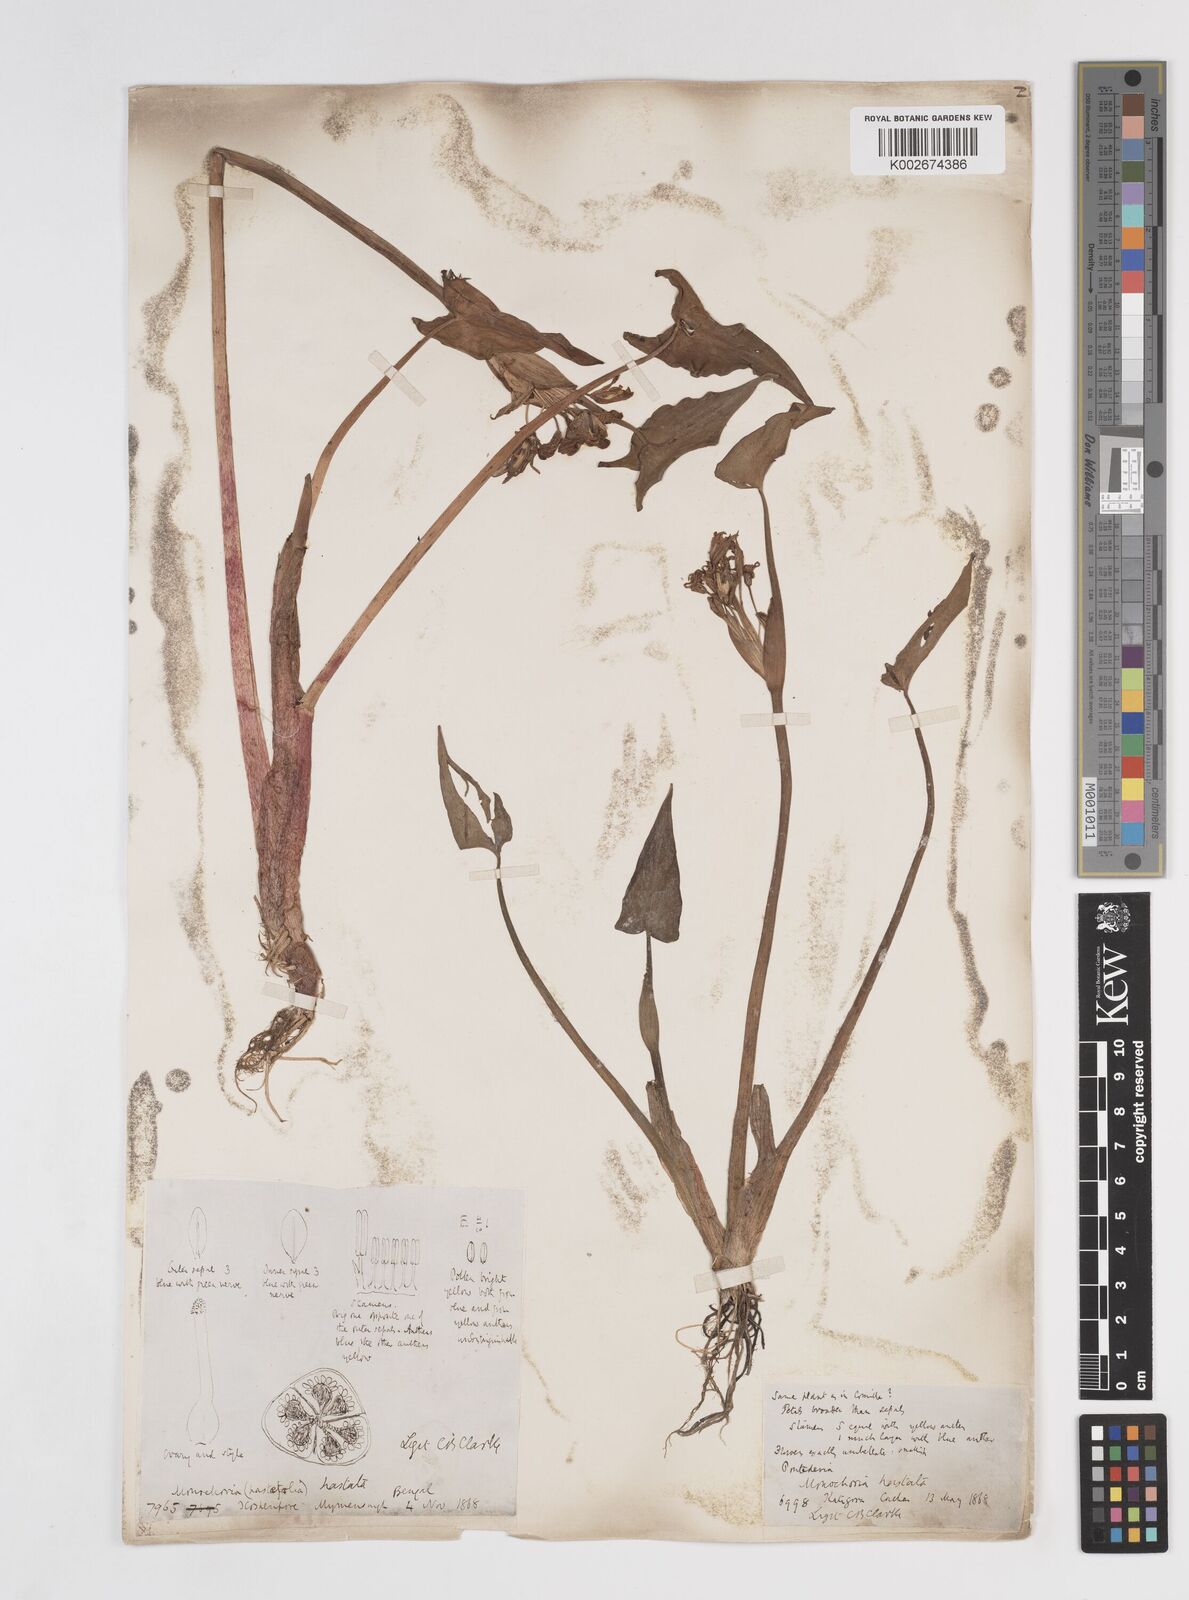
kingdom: Plantae
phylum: Tracheophyta
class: Liliopsida
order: Commelinales
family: Pontederiaceae
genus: Pontederia
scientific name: Pontederia hastata
